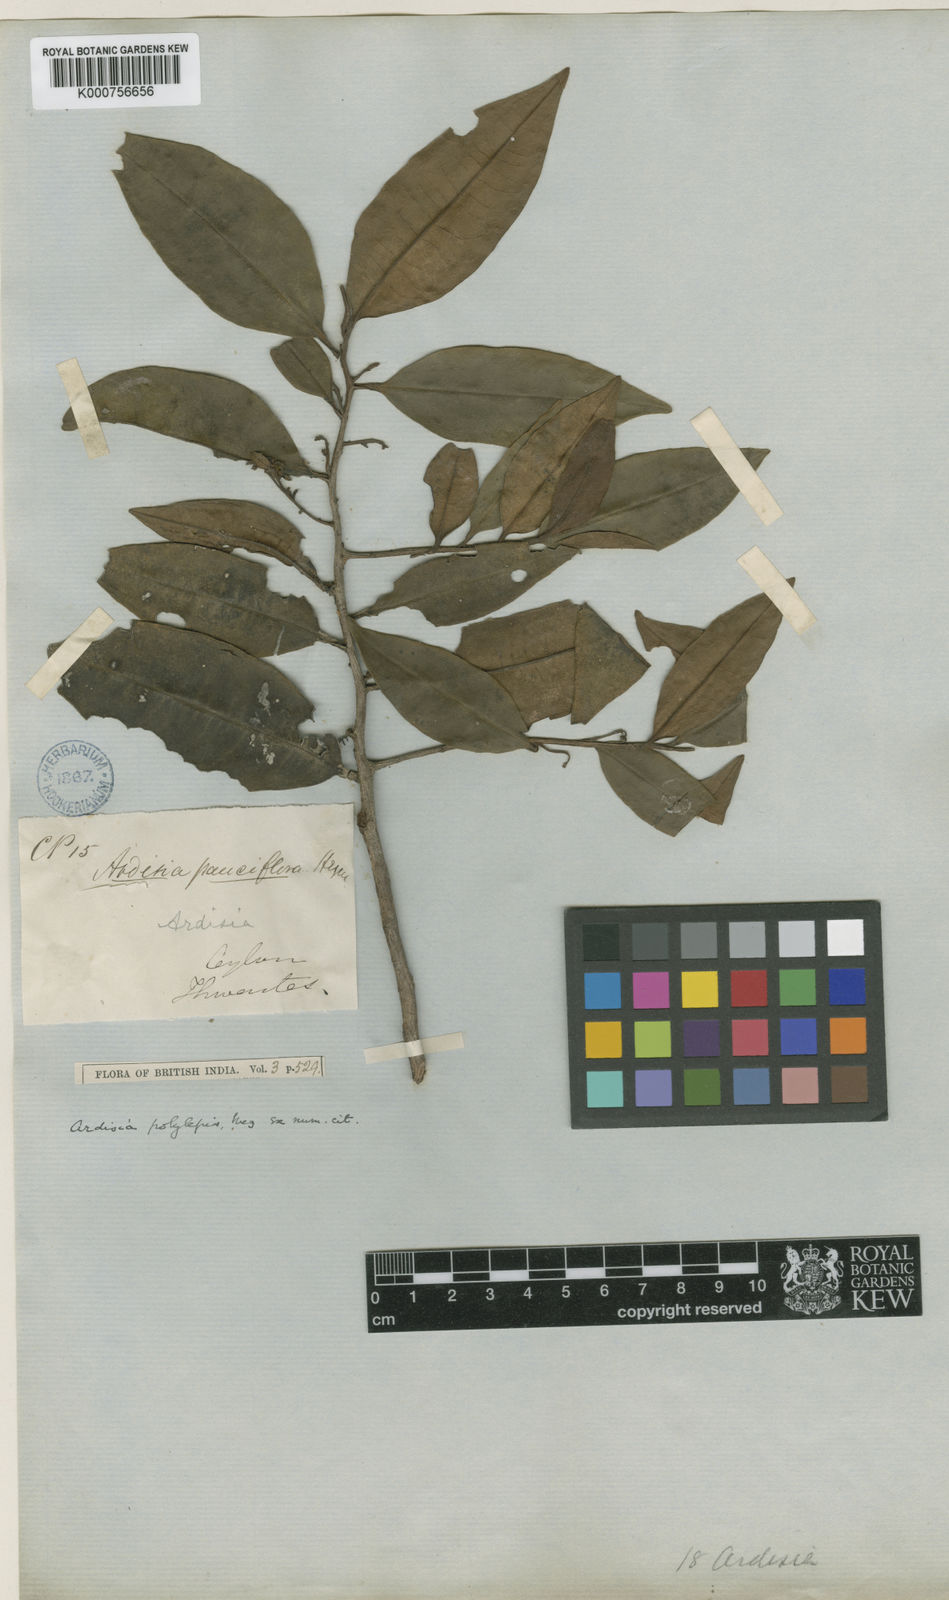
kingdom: Plantae
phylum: Tracheophyta
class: Magnoliopsida
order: Ericales
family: Primulaceae
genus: Ardisia
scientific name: Ardisia polylepis
